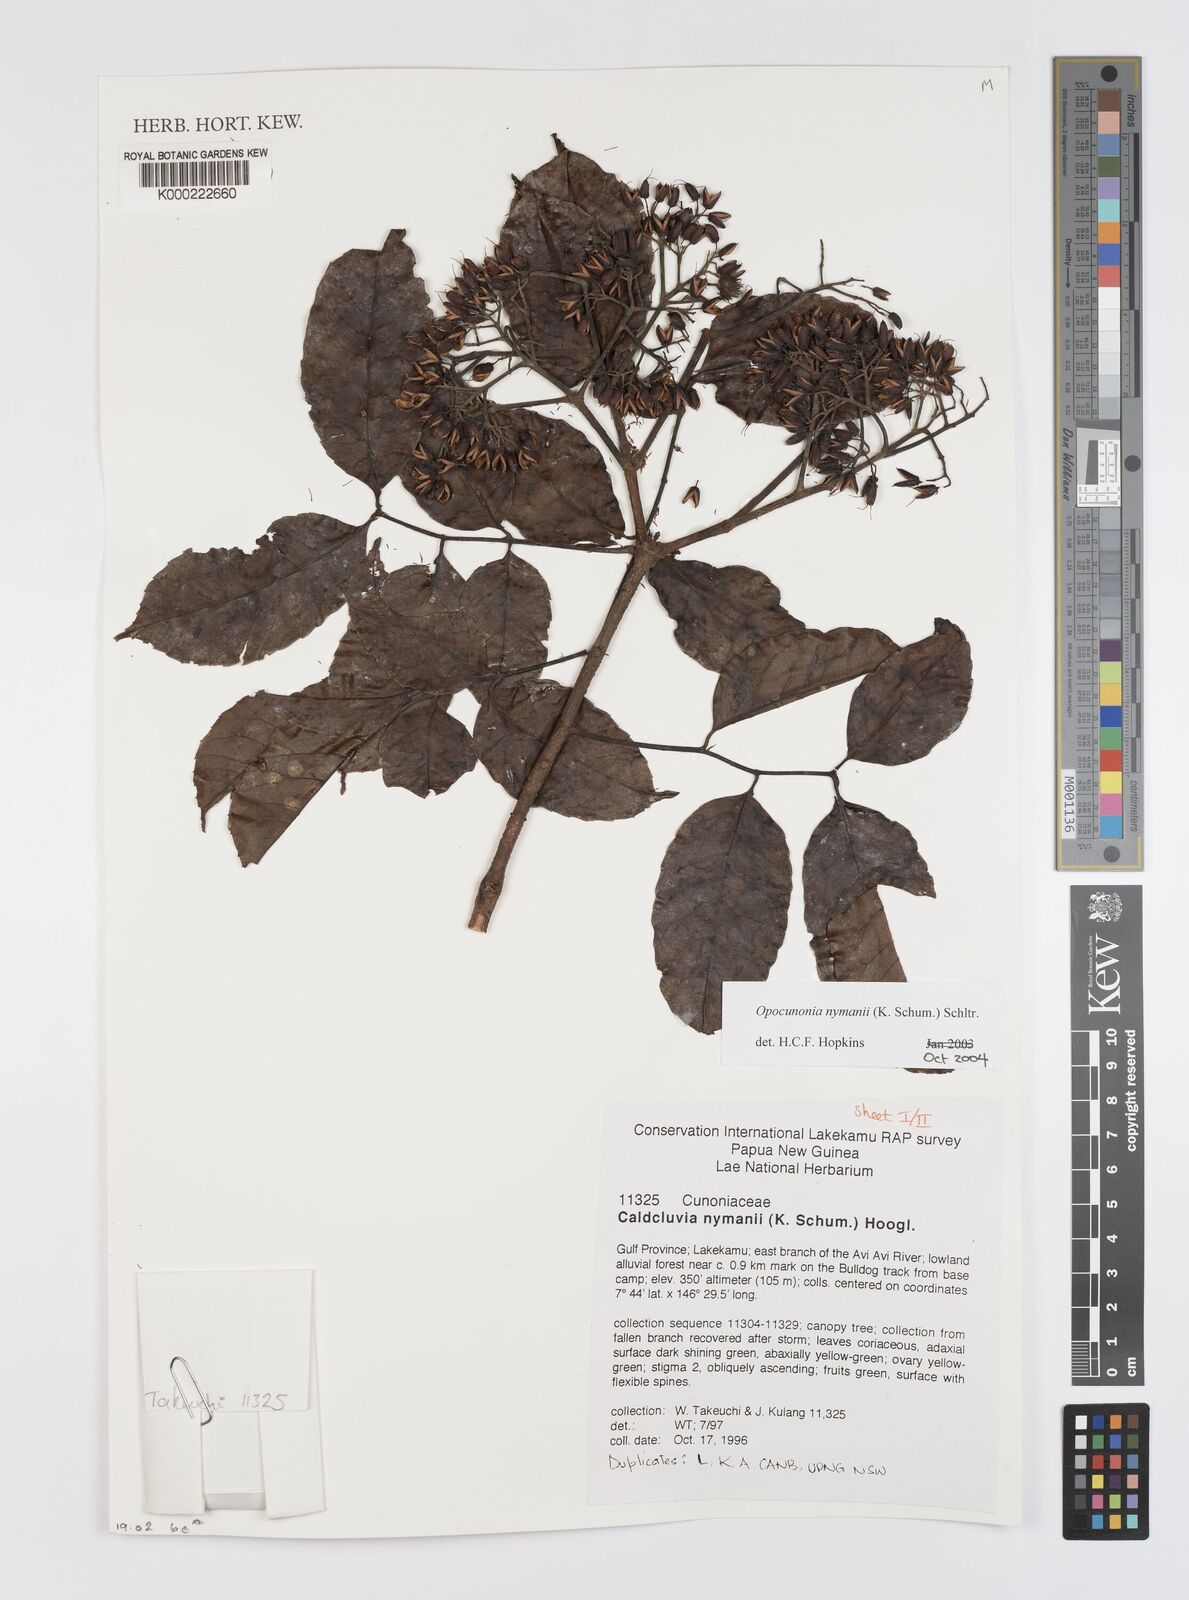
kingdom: Plantae
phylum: Tracheophyta
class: Magnoliopsida
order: Oxalidales
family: Cunoniaceae
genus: Opocunonia
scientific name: Opocunonia nymanii
